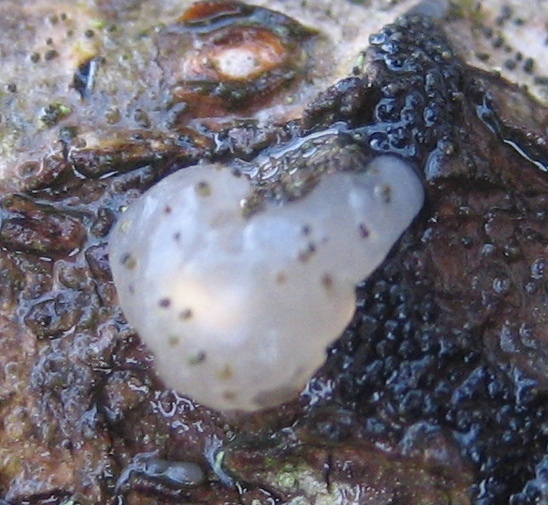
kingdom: Fungi
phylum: Basidiomycota
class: Agaricomycetes
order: Auriculariales
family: Hyaloriaceae
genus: Myxarium
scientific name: Myxarium nucleatum
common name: klar bævretop
